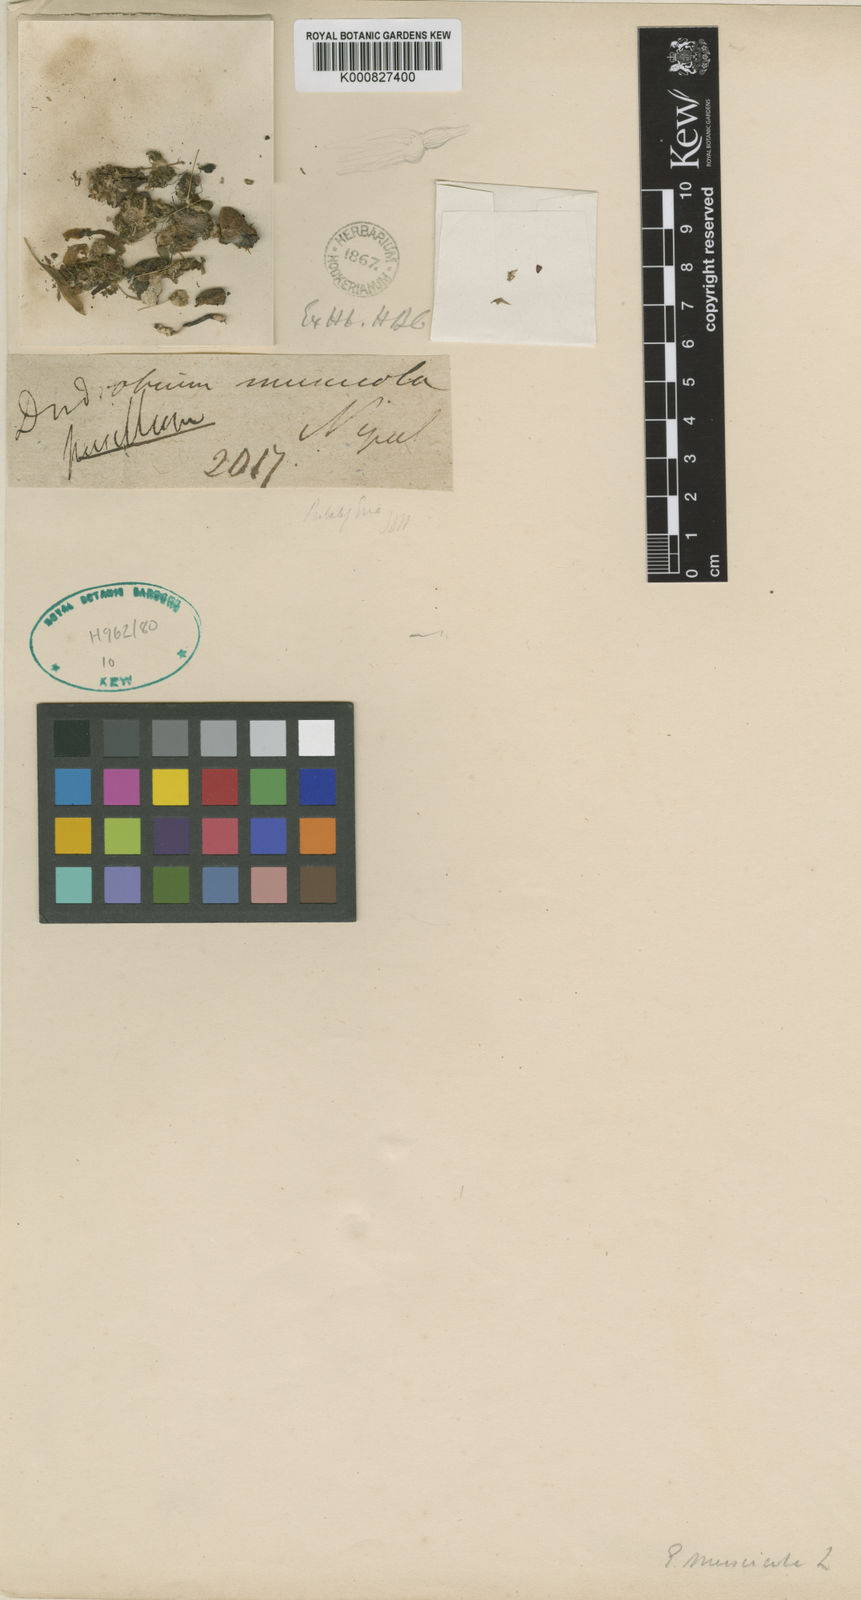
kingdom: Plantae
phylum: Tracheophyta
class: Liliopsida
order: Asparagales
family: Orchidaceae
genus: Porpax
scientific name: Porpax parviflorum
